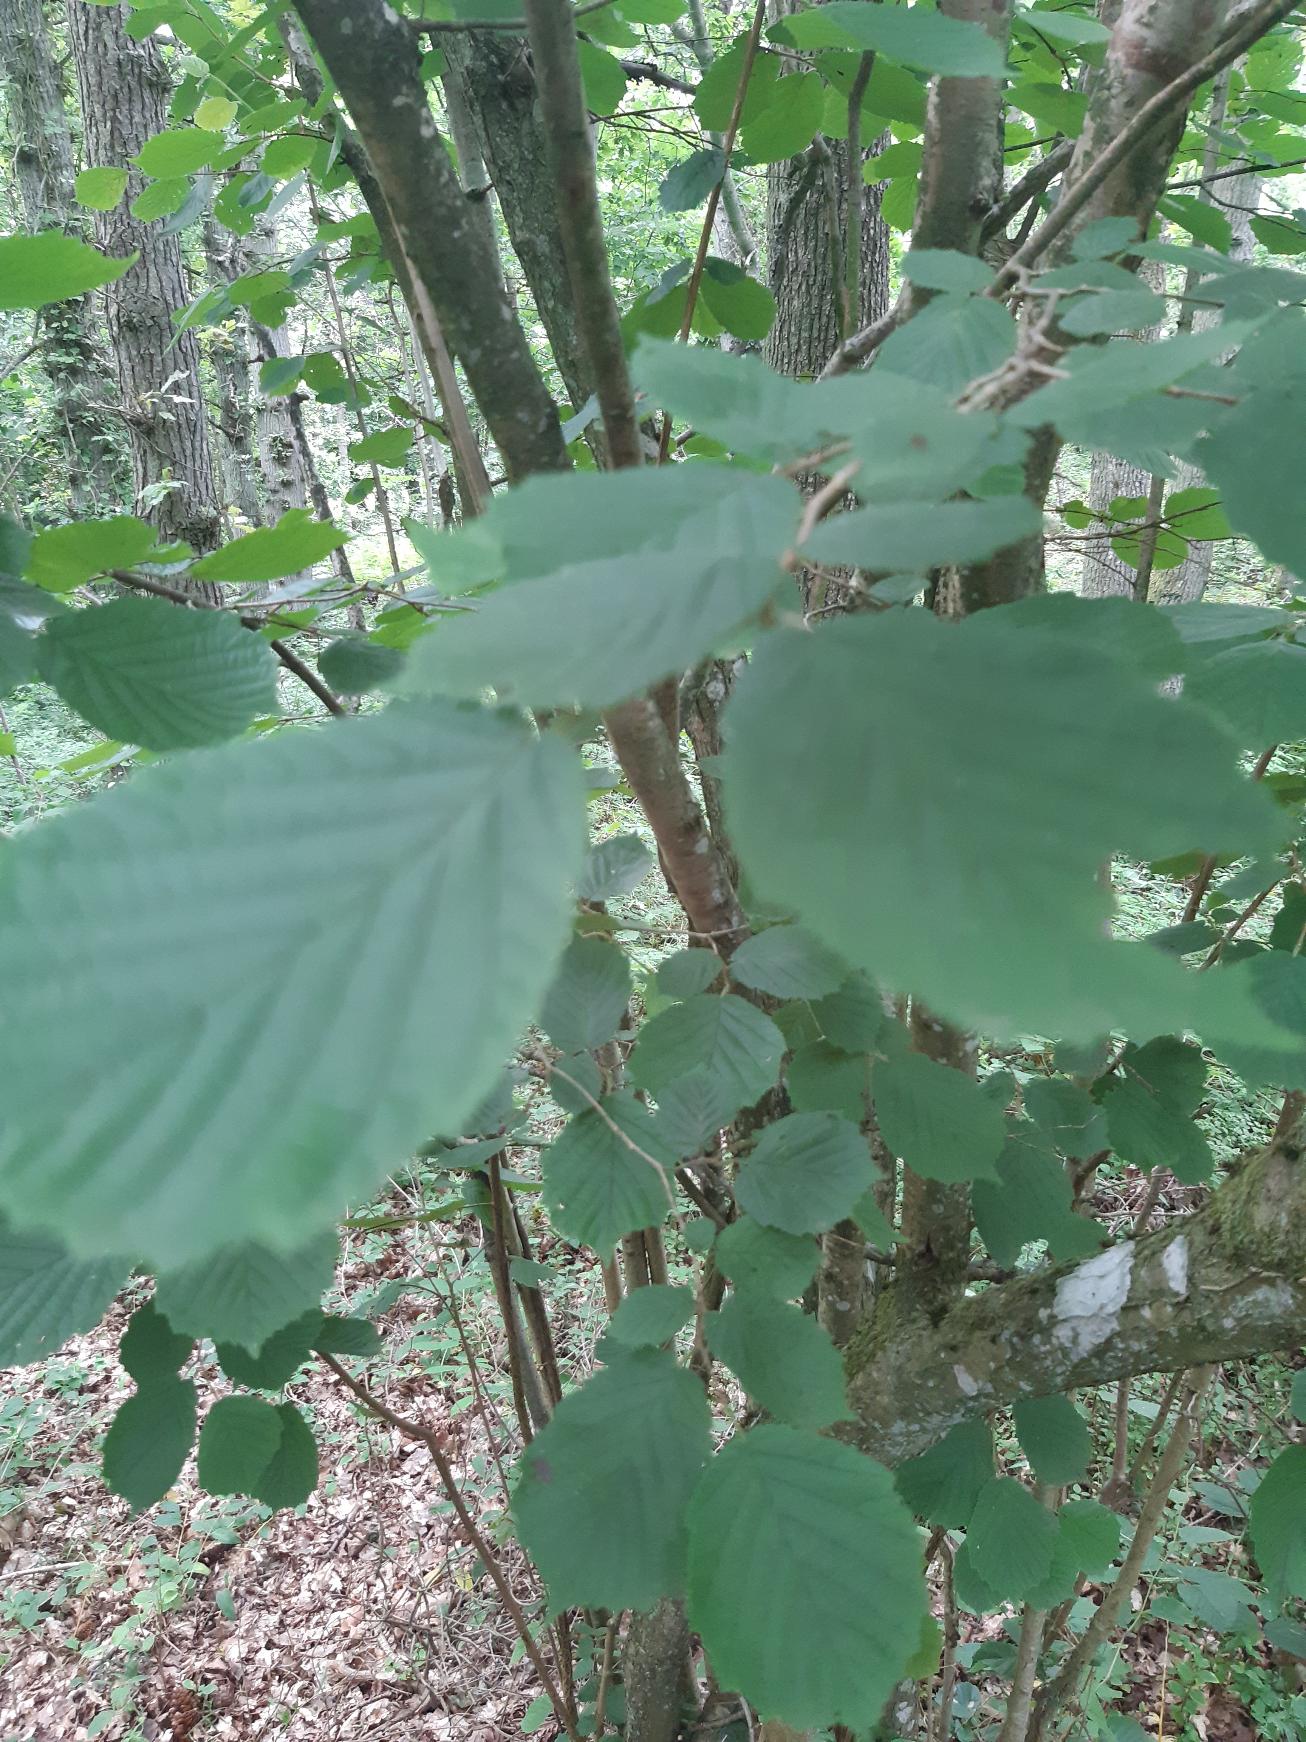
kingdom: Plantae
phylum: Tracheophyta
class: Magnoliopsida
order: Fagales
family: Betulaceae
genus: Corylus
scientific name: Corylus avellana
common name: Hassel
